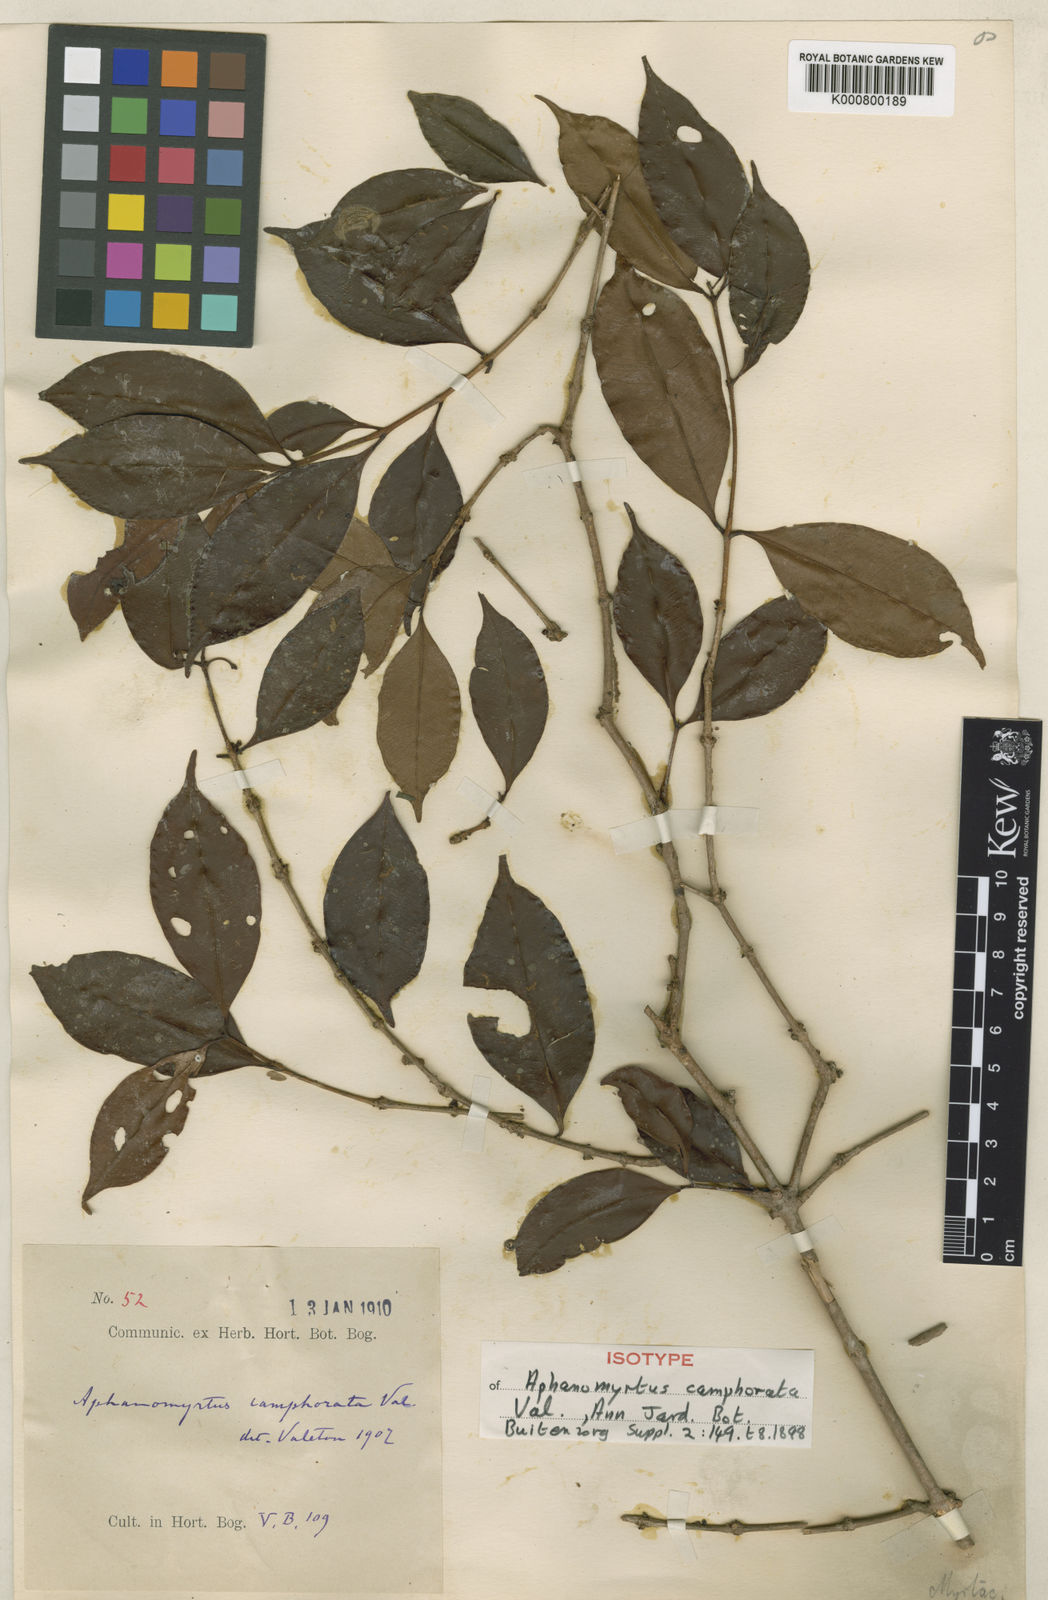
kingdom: Plantae
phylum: Tracheophyta
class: Magnoliopsida
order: Myrtales
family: Myrtaceae
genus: Syzygium
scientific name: Syzygium skiophilum
